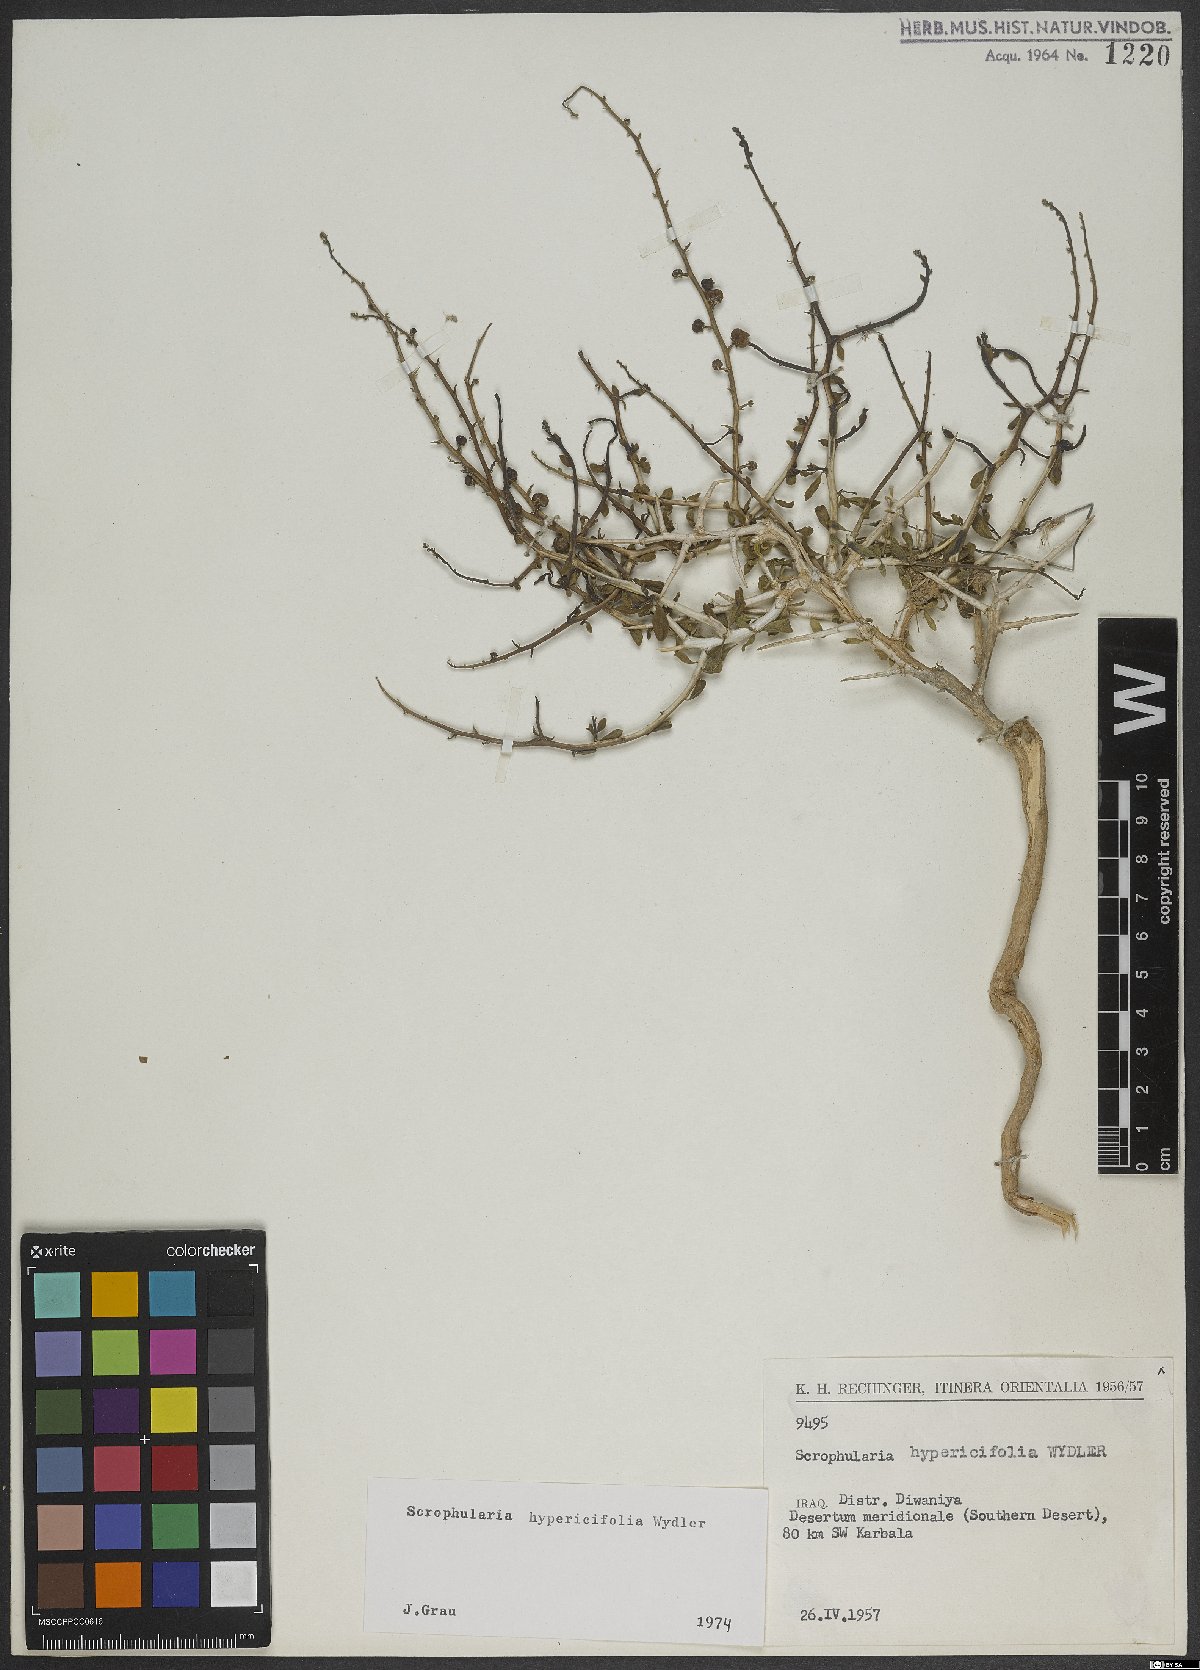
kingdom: Plantae
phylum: Tracheophyta
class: Magnoliopsida
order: Lamiales
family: Scrophulariaceae
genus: Scrophularia
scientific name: Scrophularia hypericifolia
